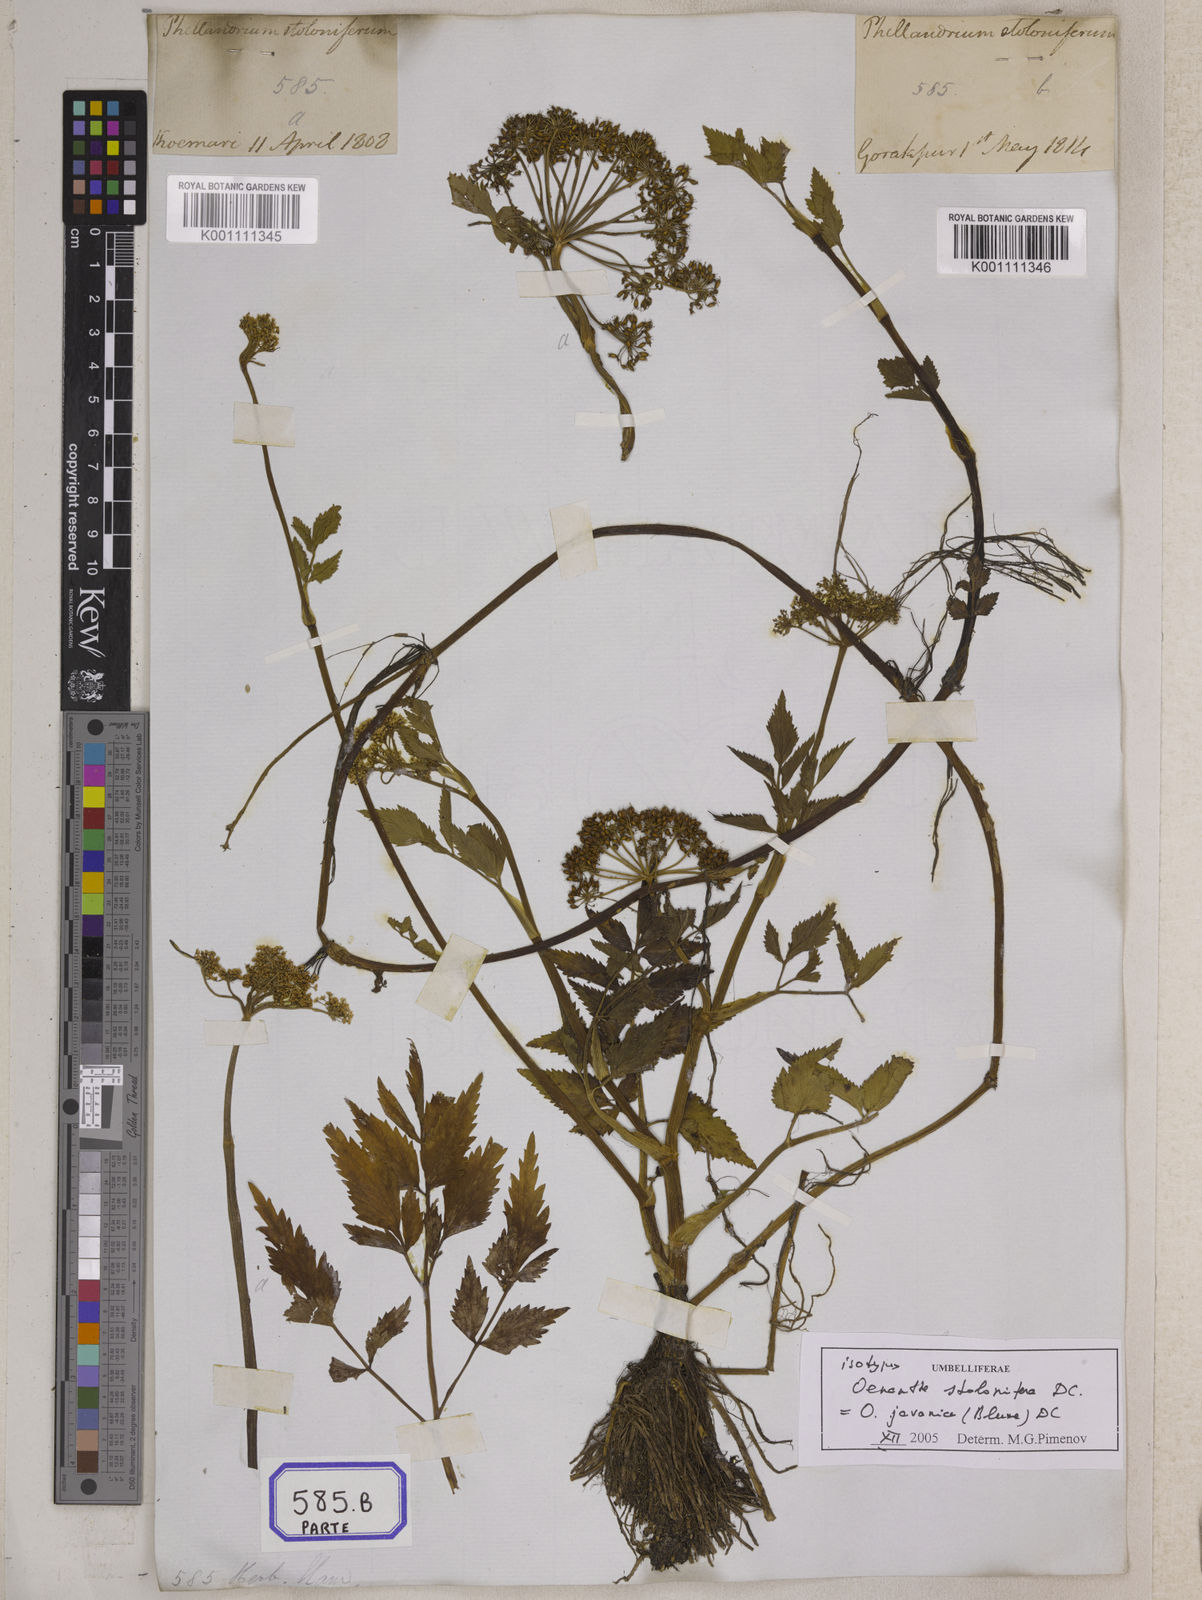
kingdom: Plantae
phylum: Tracheophyta
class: Magnoliopsida
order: Apiales
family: Apiaceae
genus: Oenanthe
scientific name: Oenanthe
